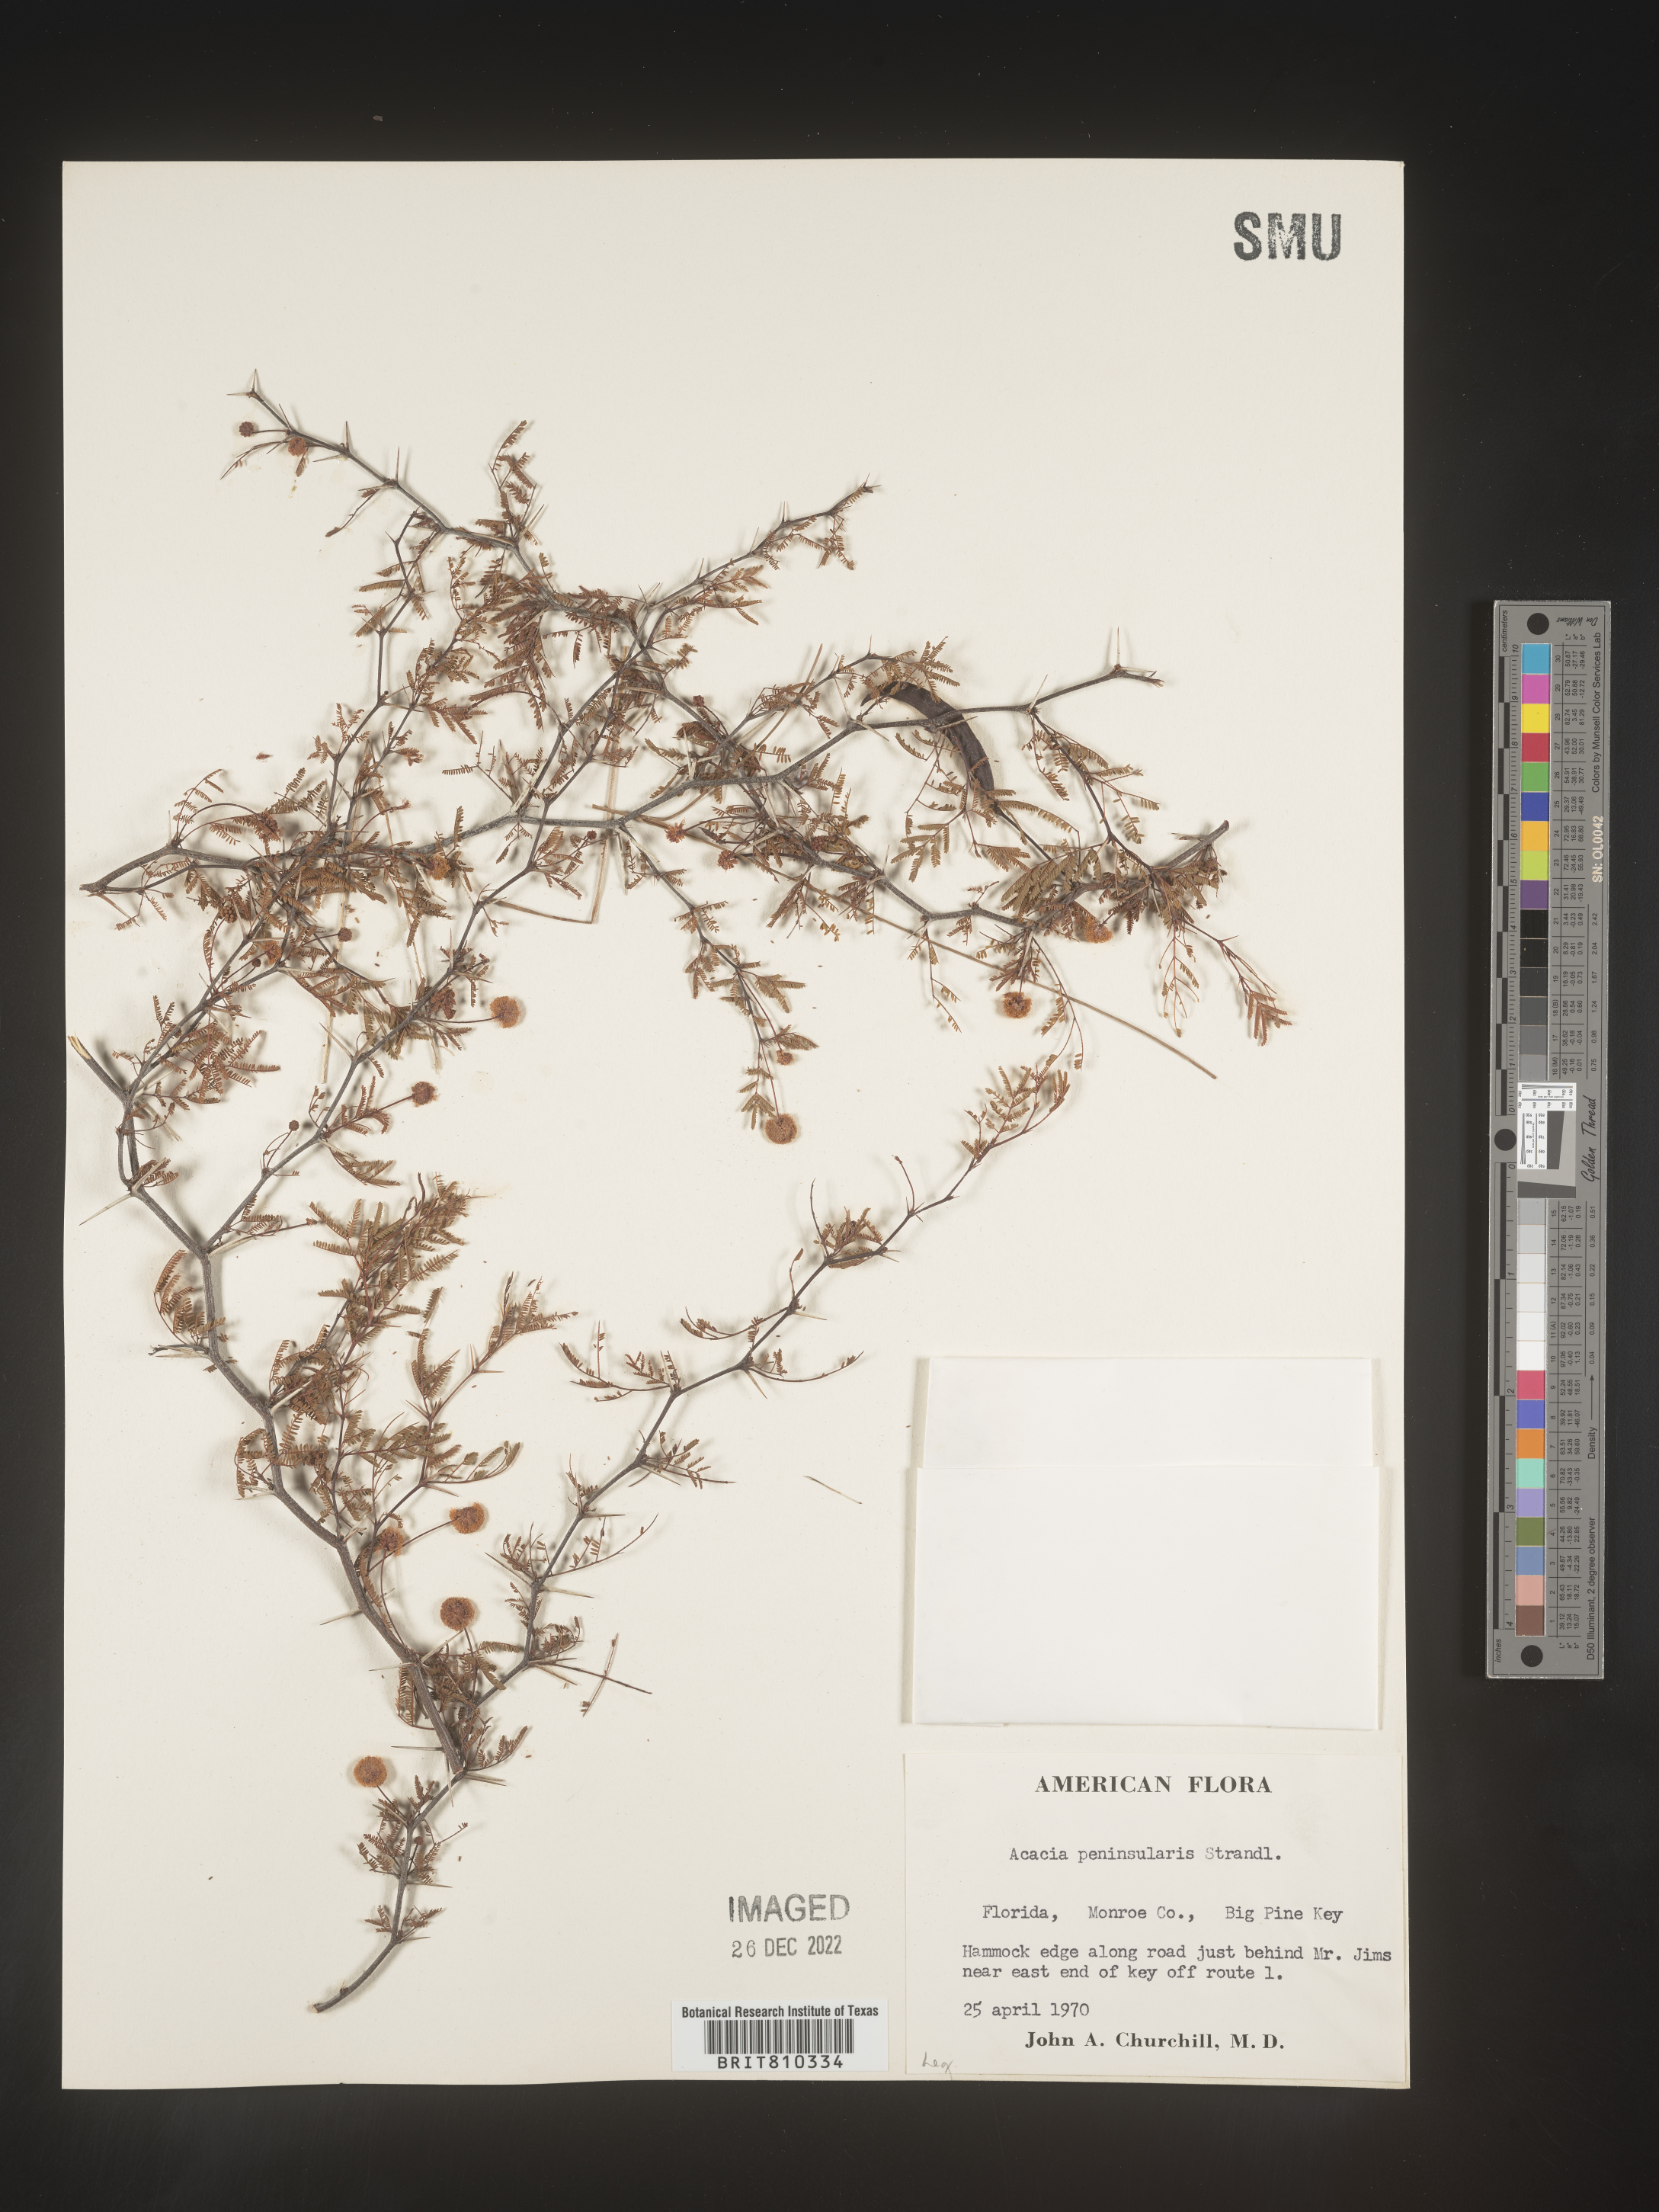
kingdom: Plantae
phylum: Tracheophyta
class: Magnoliopsida
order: Fabales
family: Fabaceae
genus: Acacia
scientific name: Acacia
